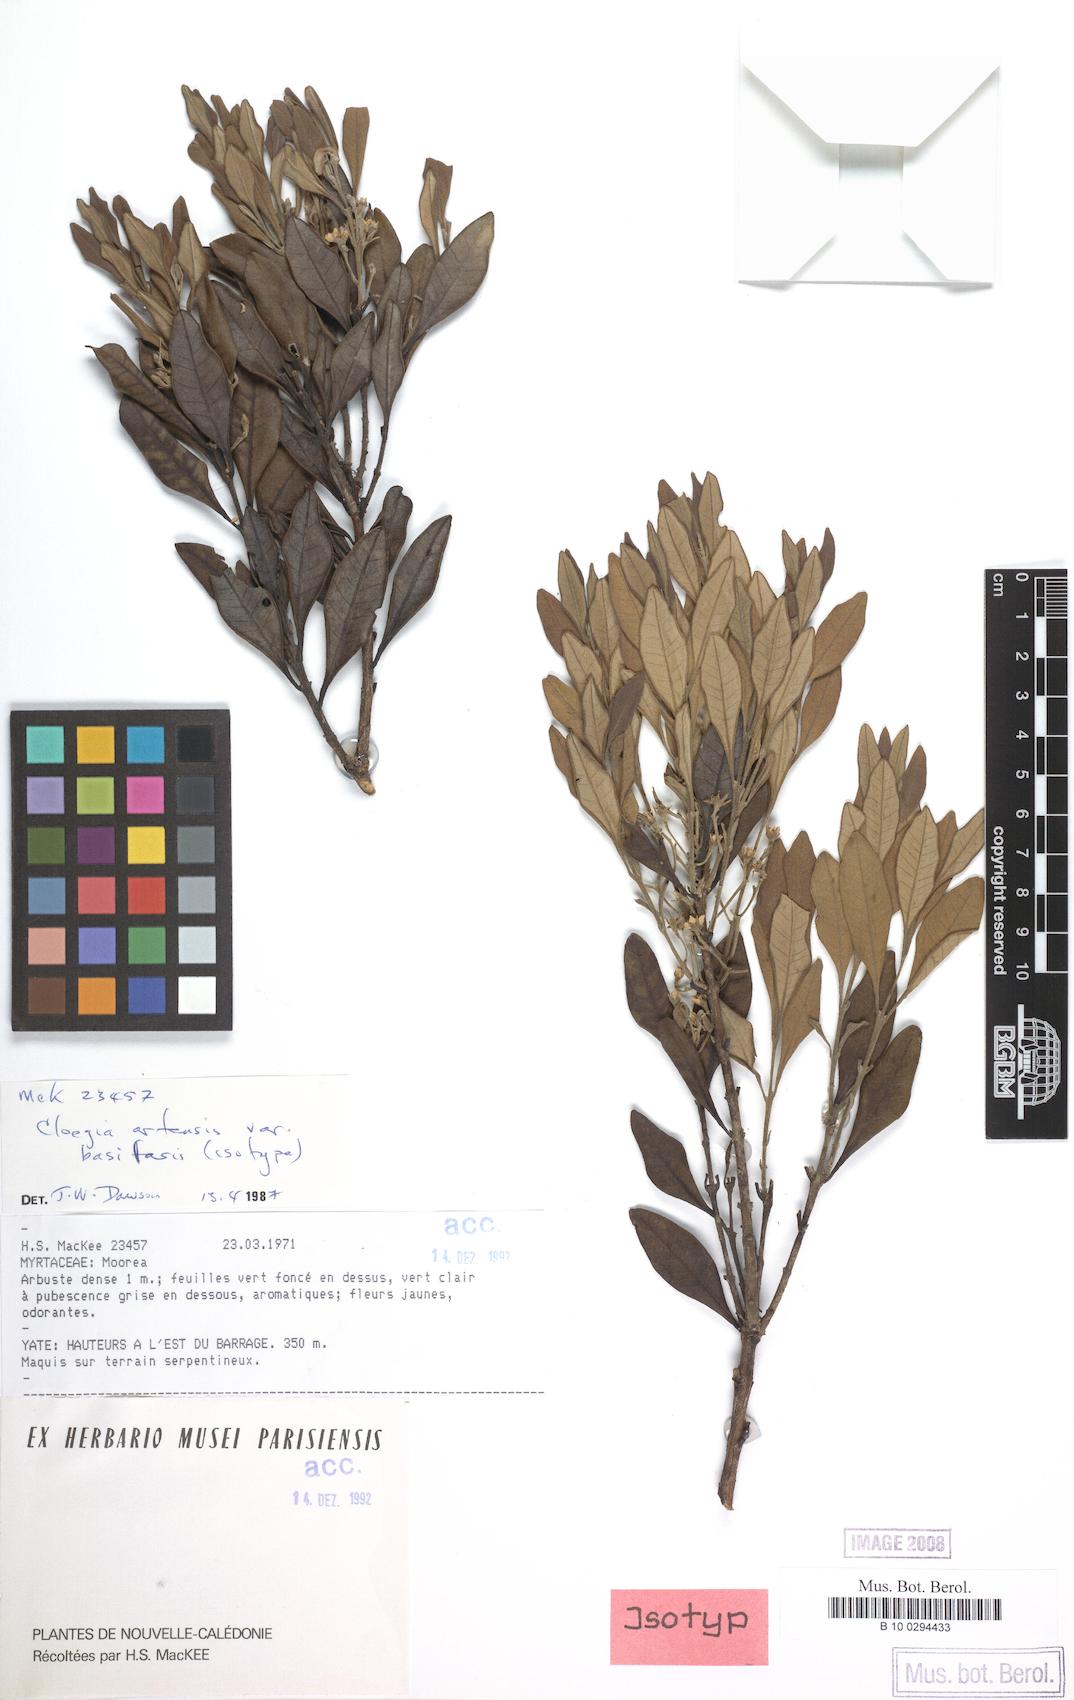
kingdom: Plantae
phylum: Tracheophyta
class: Magnoliopsida
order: Myrtales
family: Myrtaceae
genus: Cloezia
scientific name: Cloezia artensis
